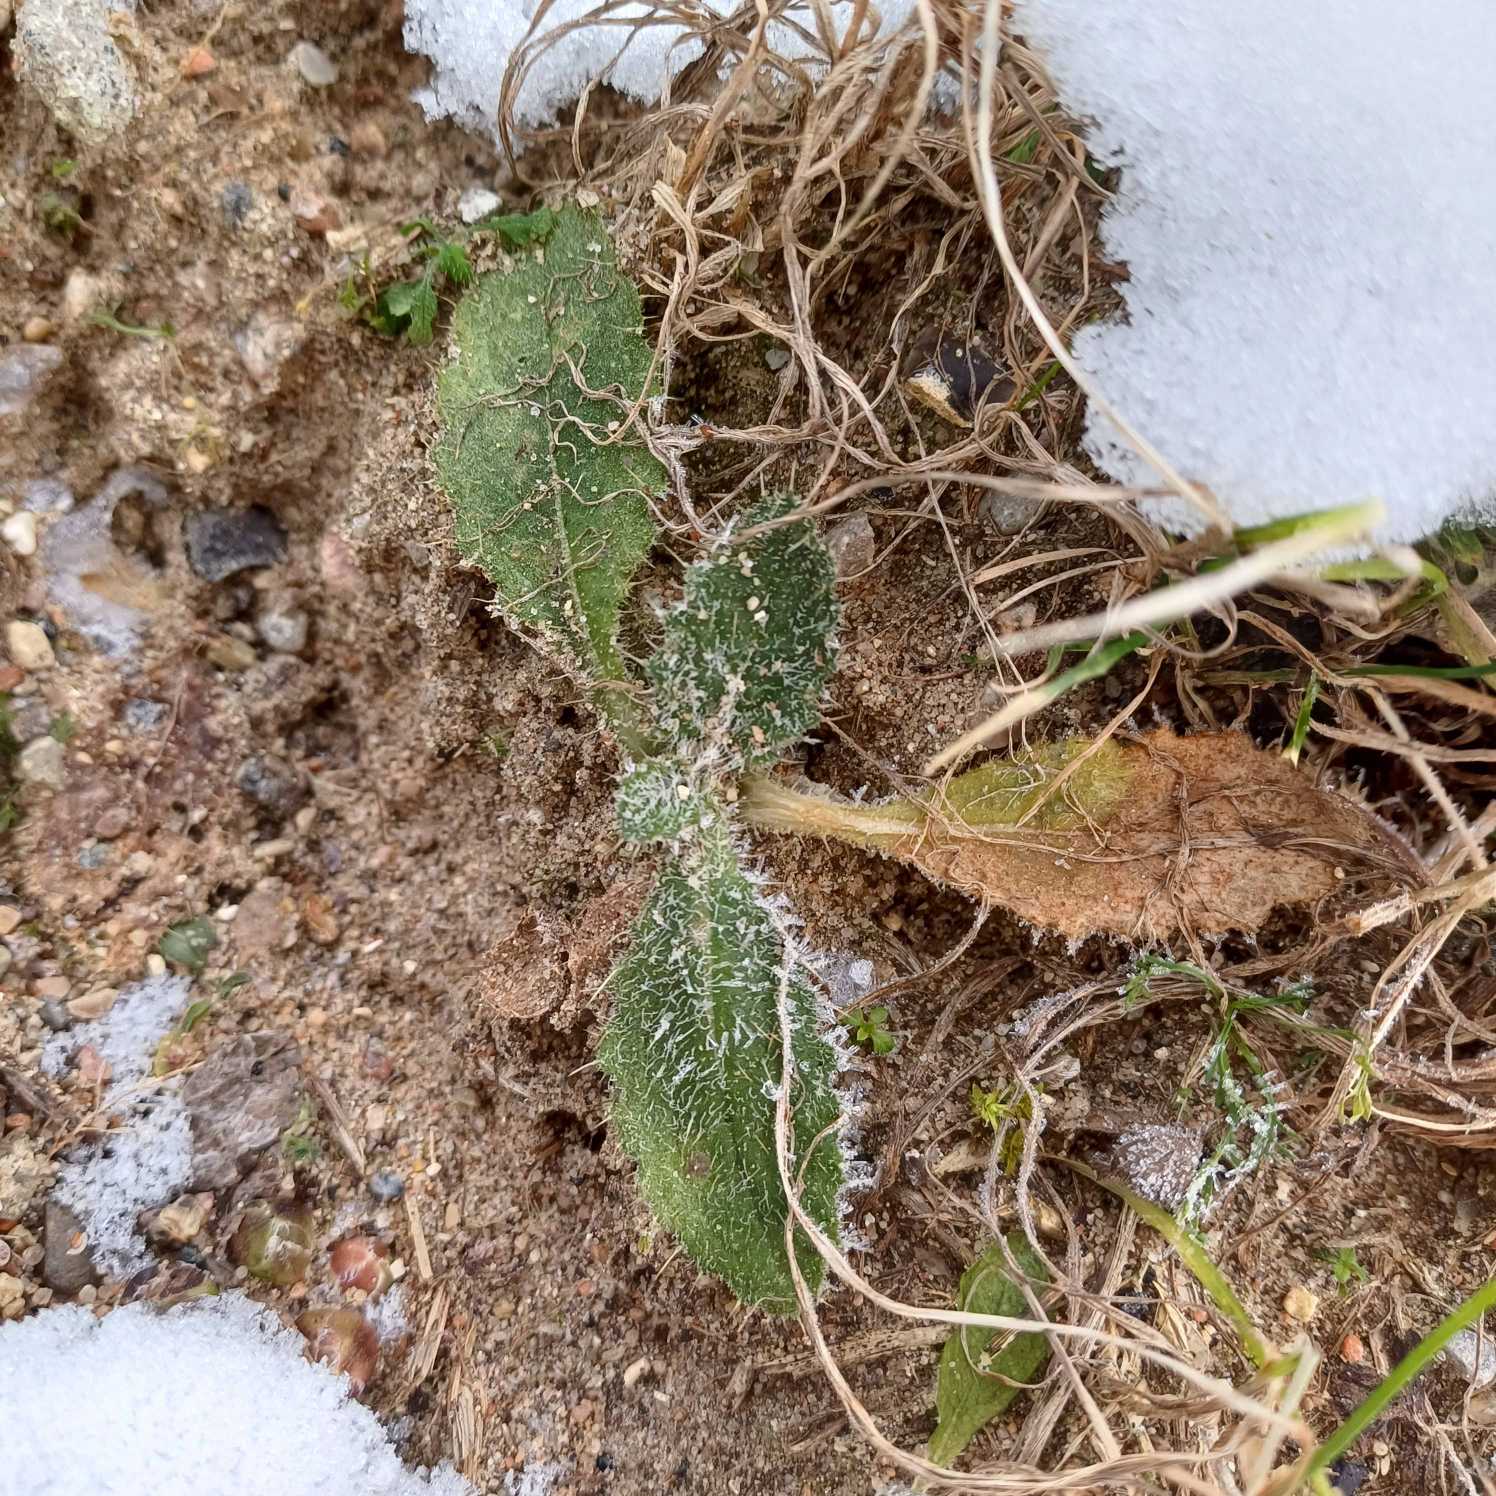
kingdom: Plantae
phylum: Tracheophyta
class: Magnoliopsida
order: Asterales
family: Asteraceae
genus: Cirsium
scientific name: Cirsium vulgare
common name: Horse-tidsel
